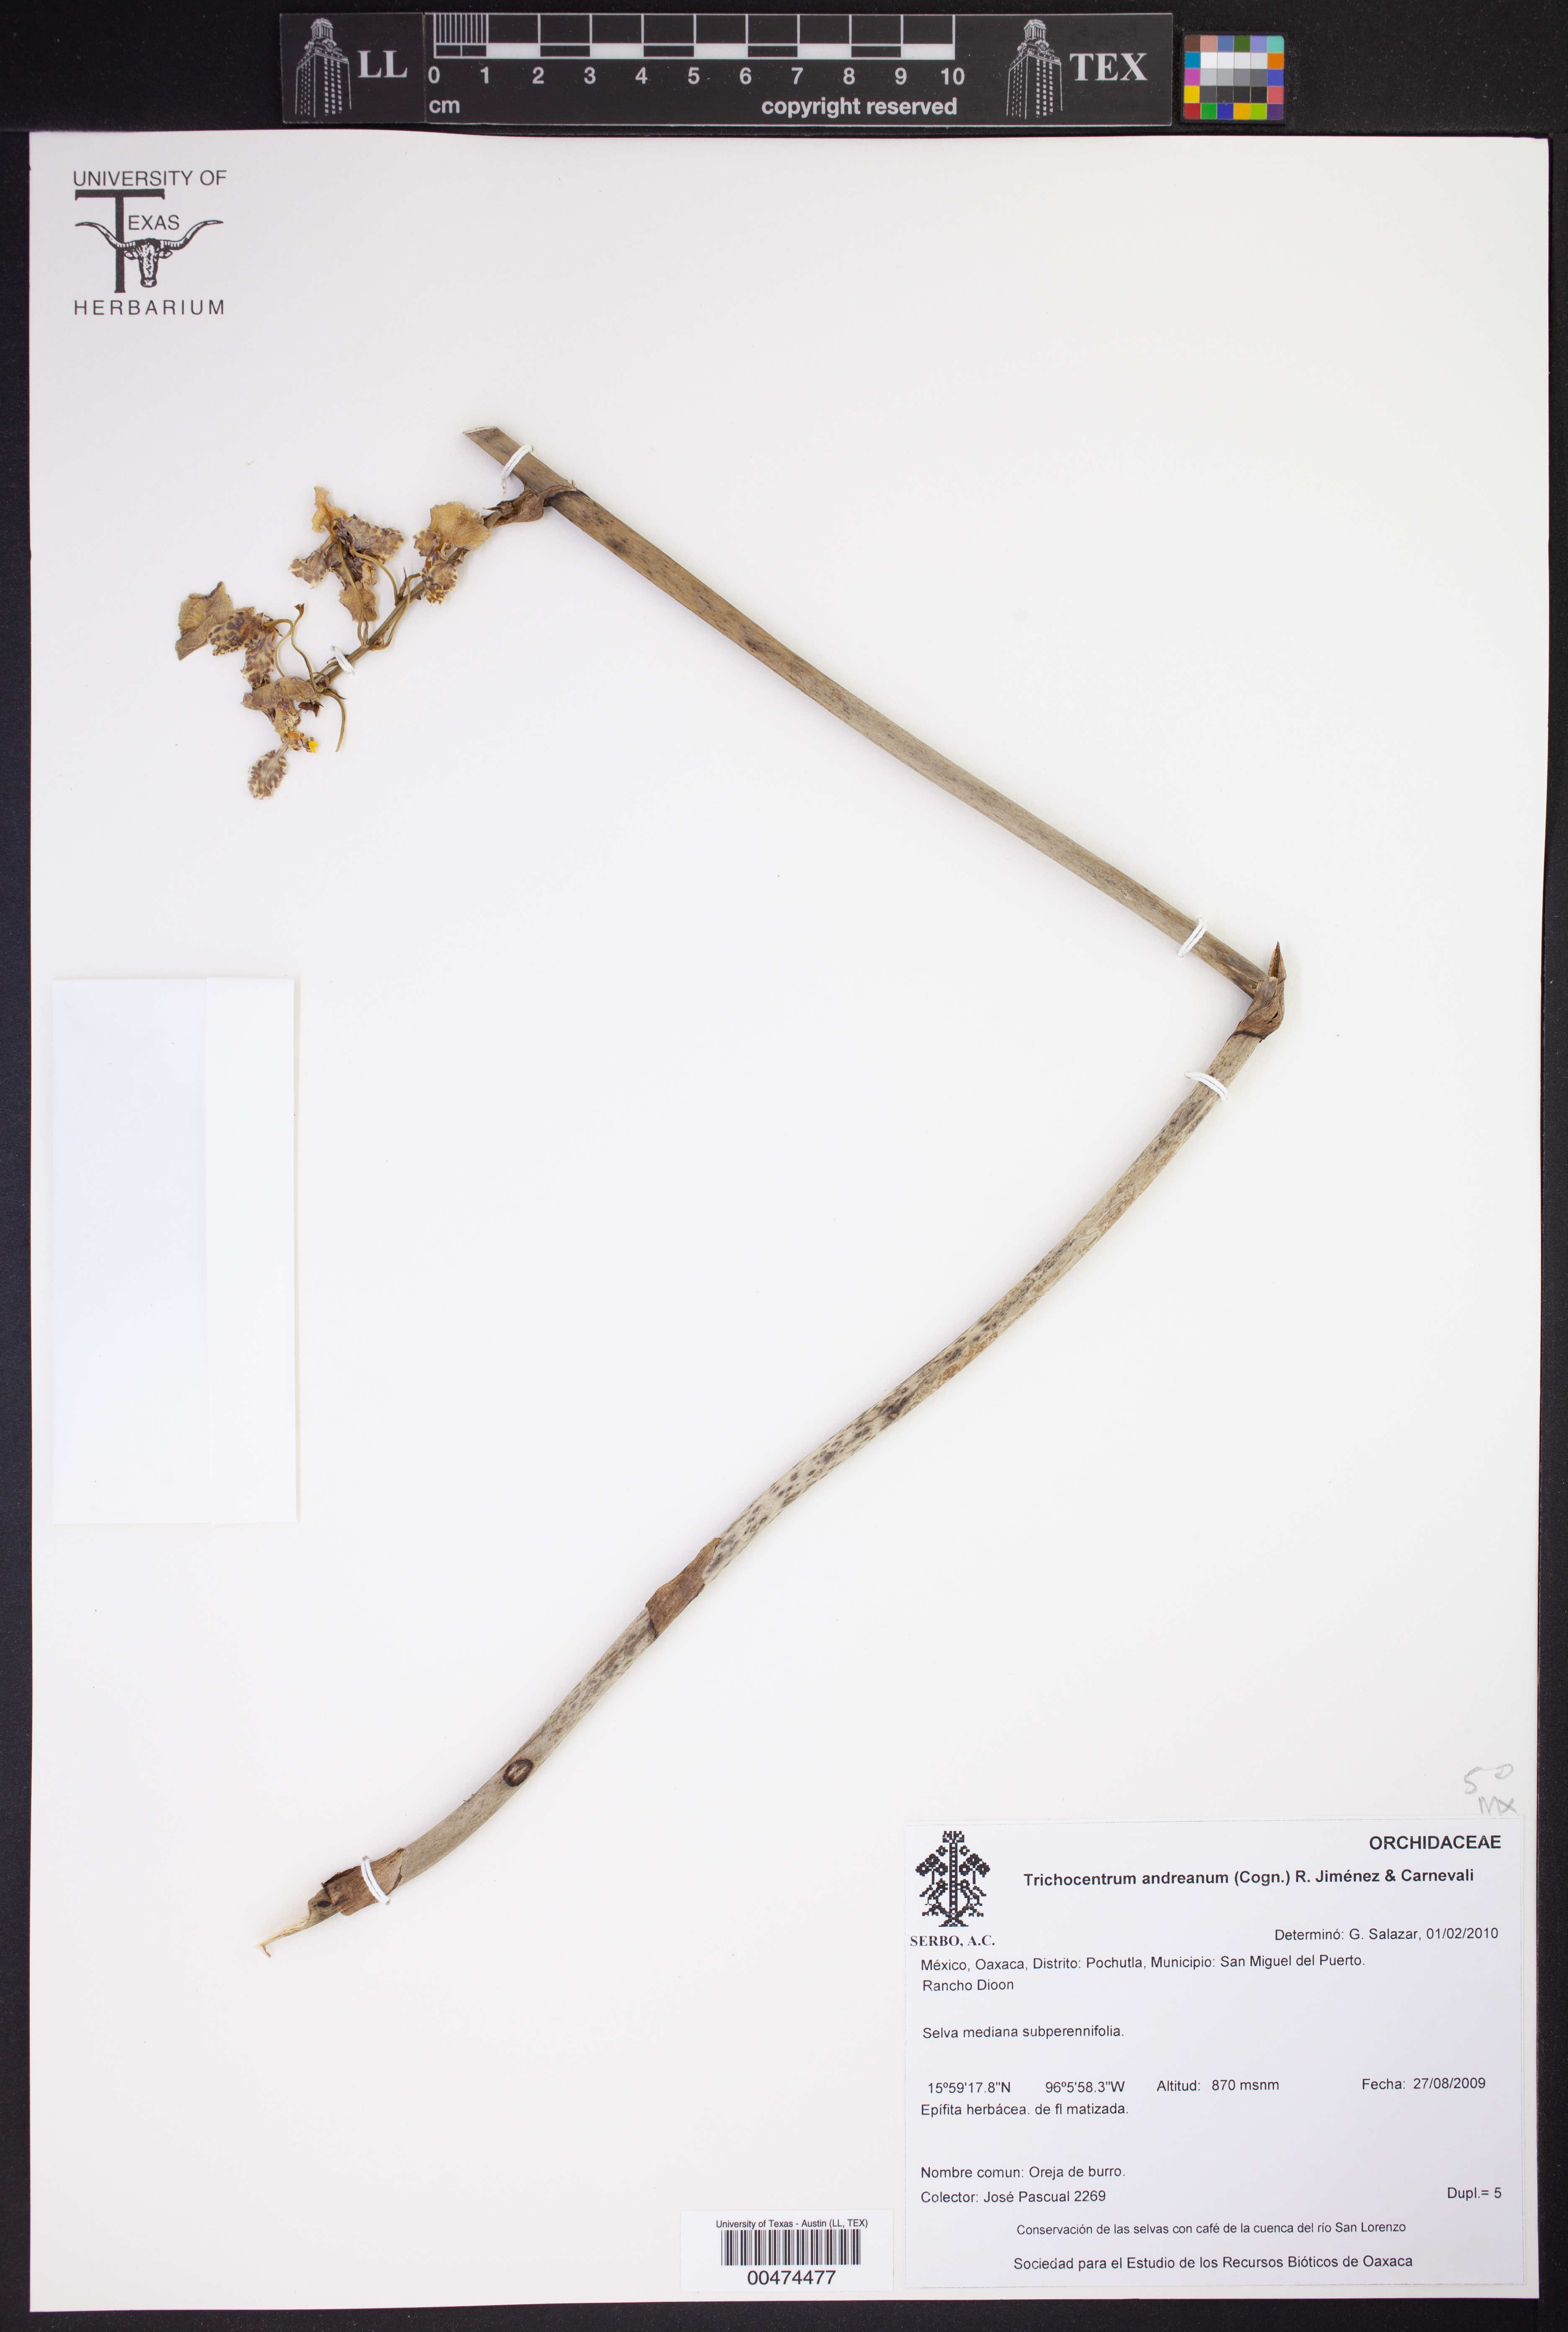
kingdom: Plantae
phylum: Tracheophyta
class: Liliopsida
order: Asparagales
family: Orchidaceae
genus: Trichocentrum
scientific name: Trichocentrum andreanum
